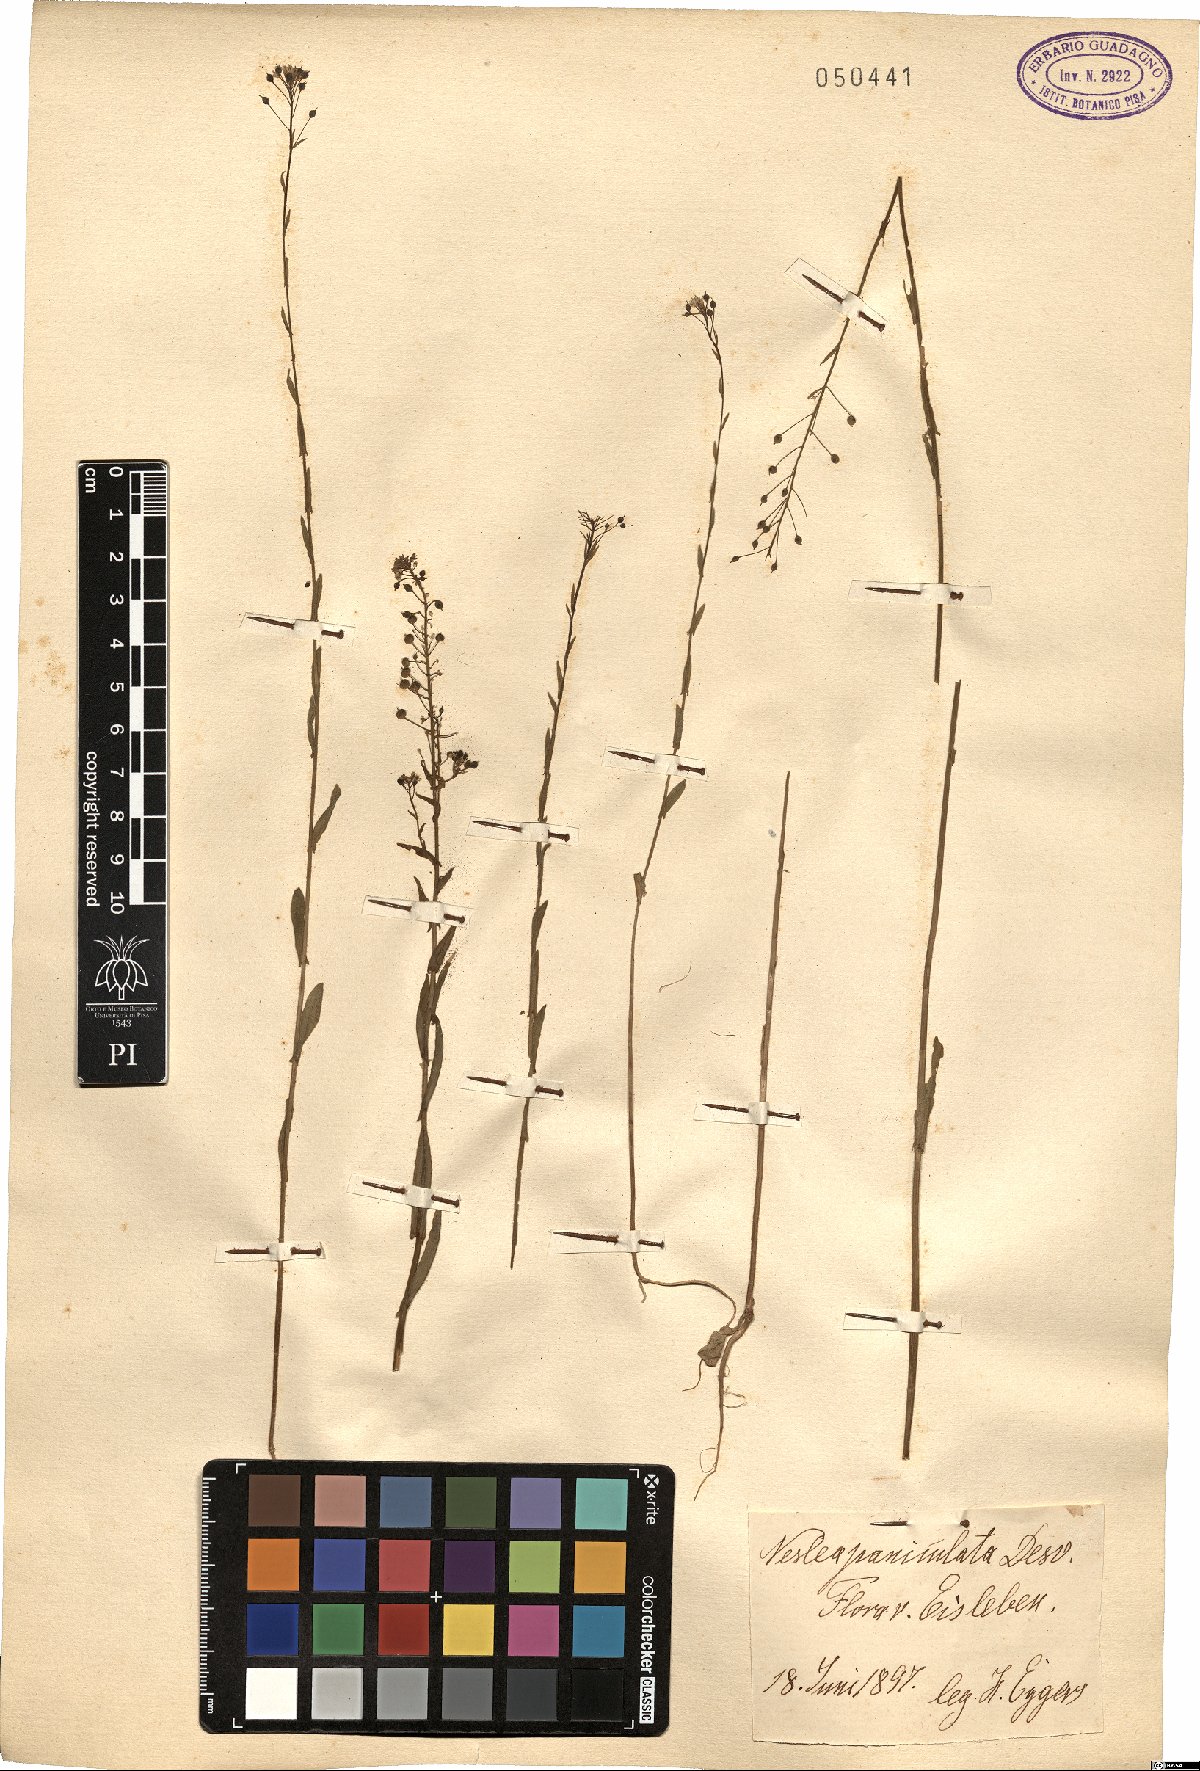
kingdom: Plantae
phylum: Tracheophyta
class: Magnoliopsida
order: Brassicales
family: Brassicaceae
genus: Neslia
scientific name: Neslia paniculata
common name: Ball mustard
